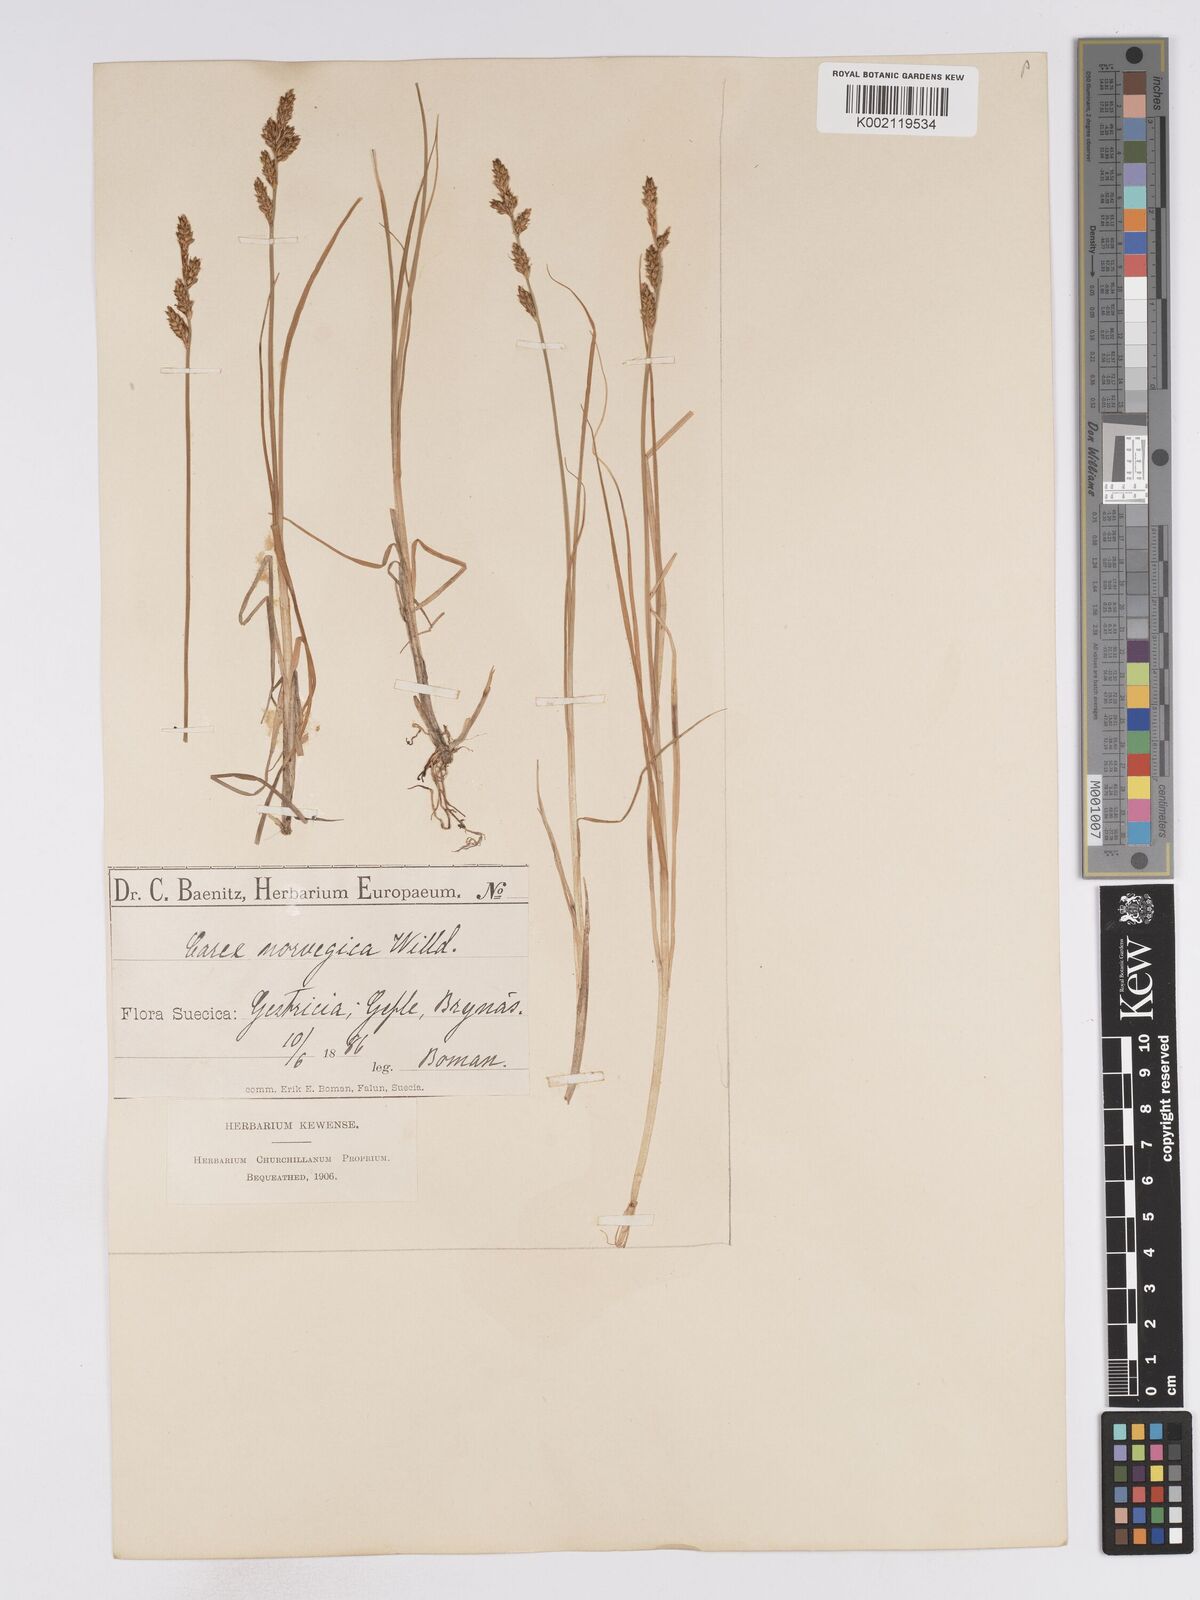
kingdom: Plantae
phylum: Tracheophyta
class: Liliopsida
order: Poales
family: Cyperaceae
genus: Carex
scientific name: Carex mackenziei
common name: Mackenzie's sedge
